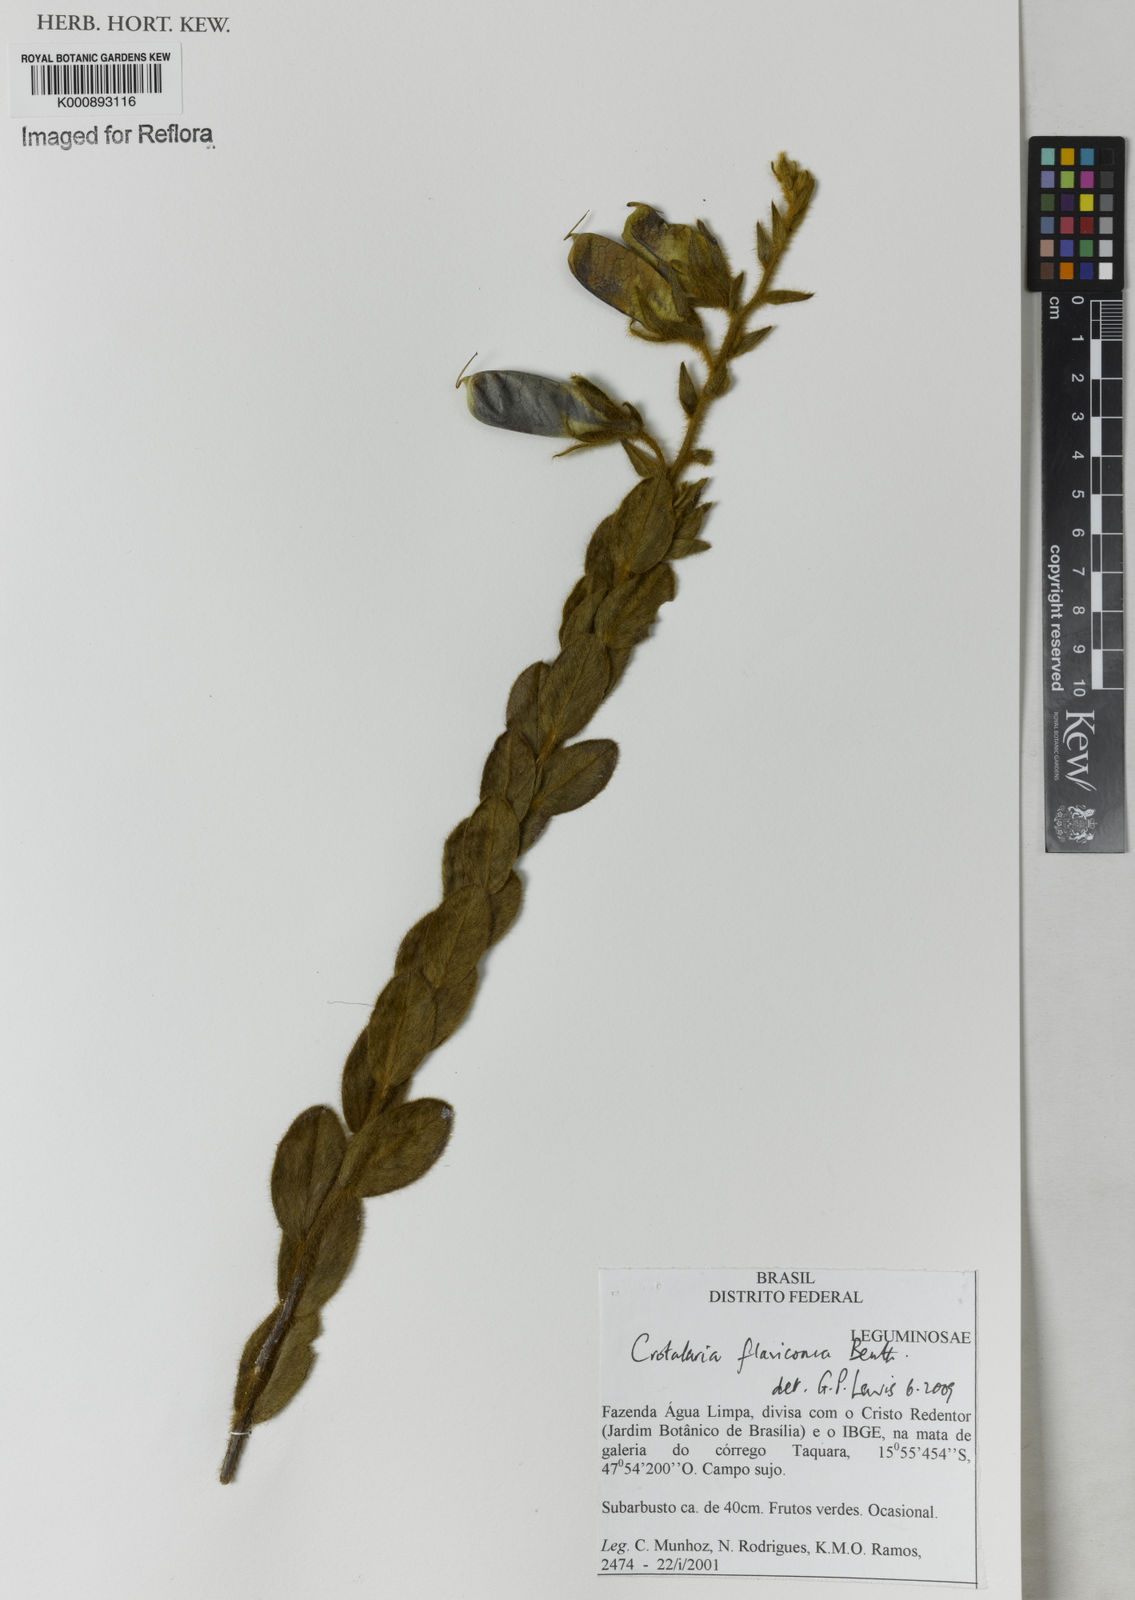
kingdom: Plantae
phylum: Tracheophyta
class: Magnoliopsida
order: Fabales
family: Fabaceae
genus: Crotalaria
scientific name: Crotalaria flavicoma
